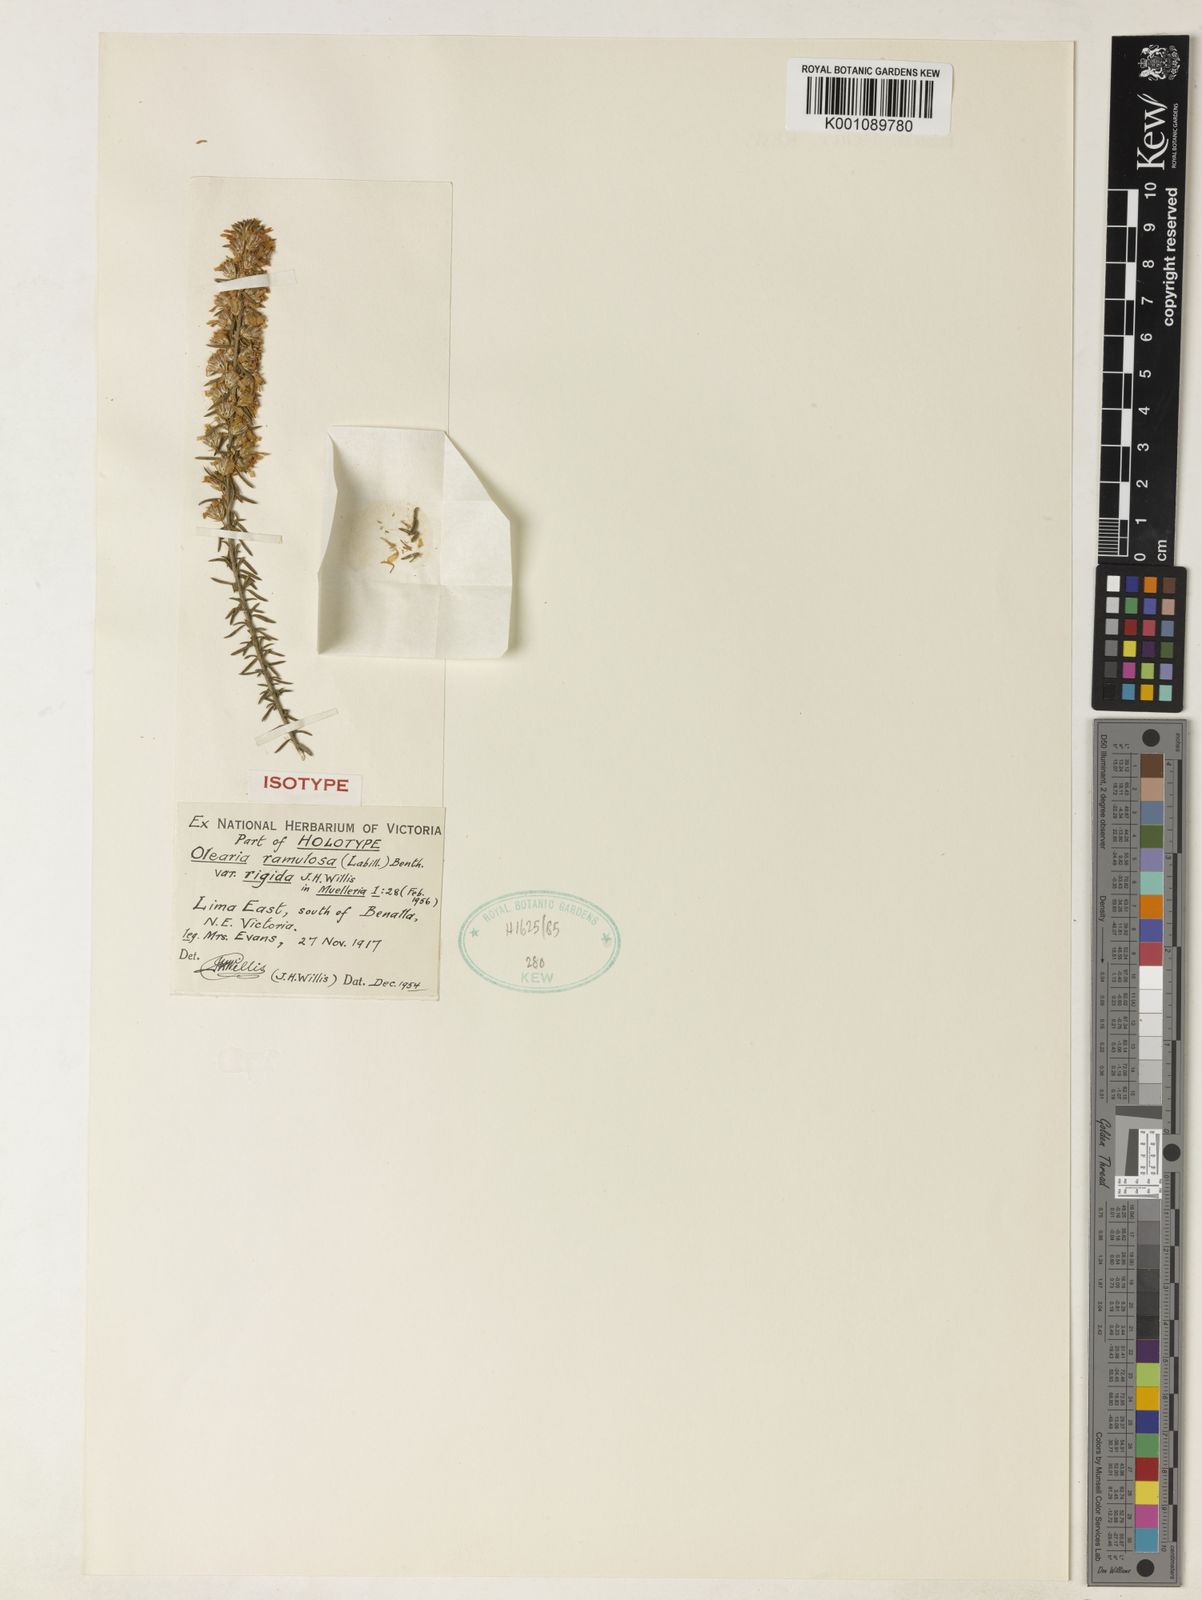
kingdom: Plantae
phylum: Tracheophyta
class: Magnoliopsida
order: Asterales
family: Asteraceae
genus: Olearia
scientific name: Olearia stricta
